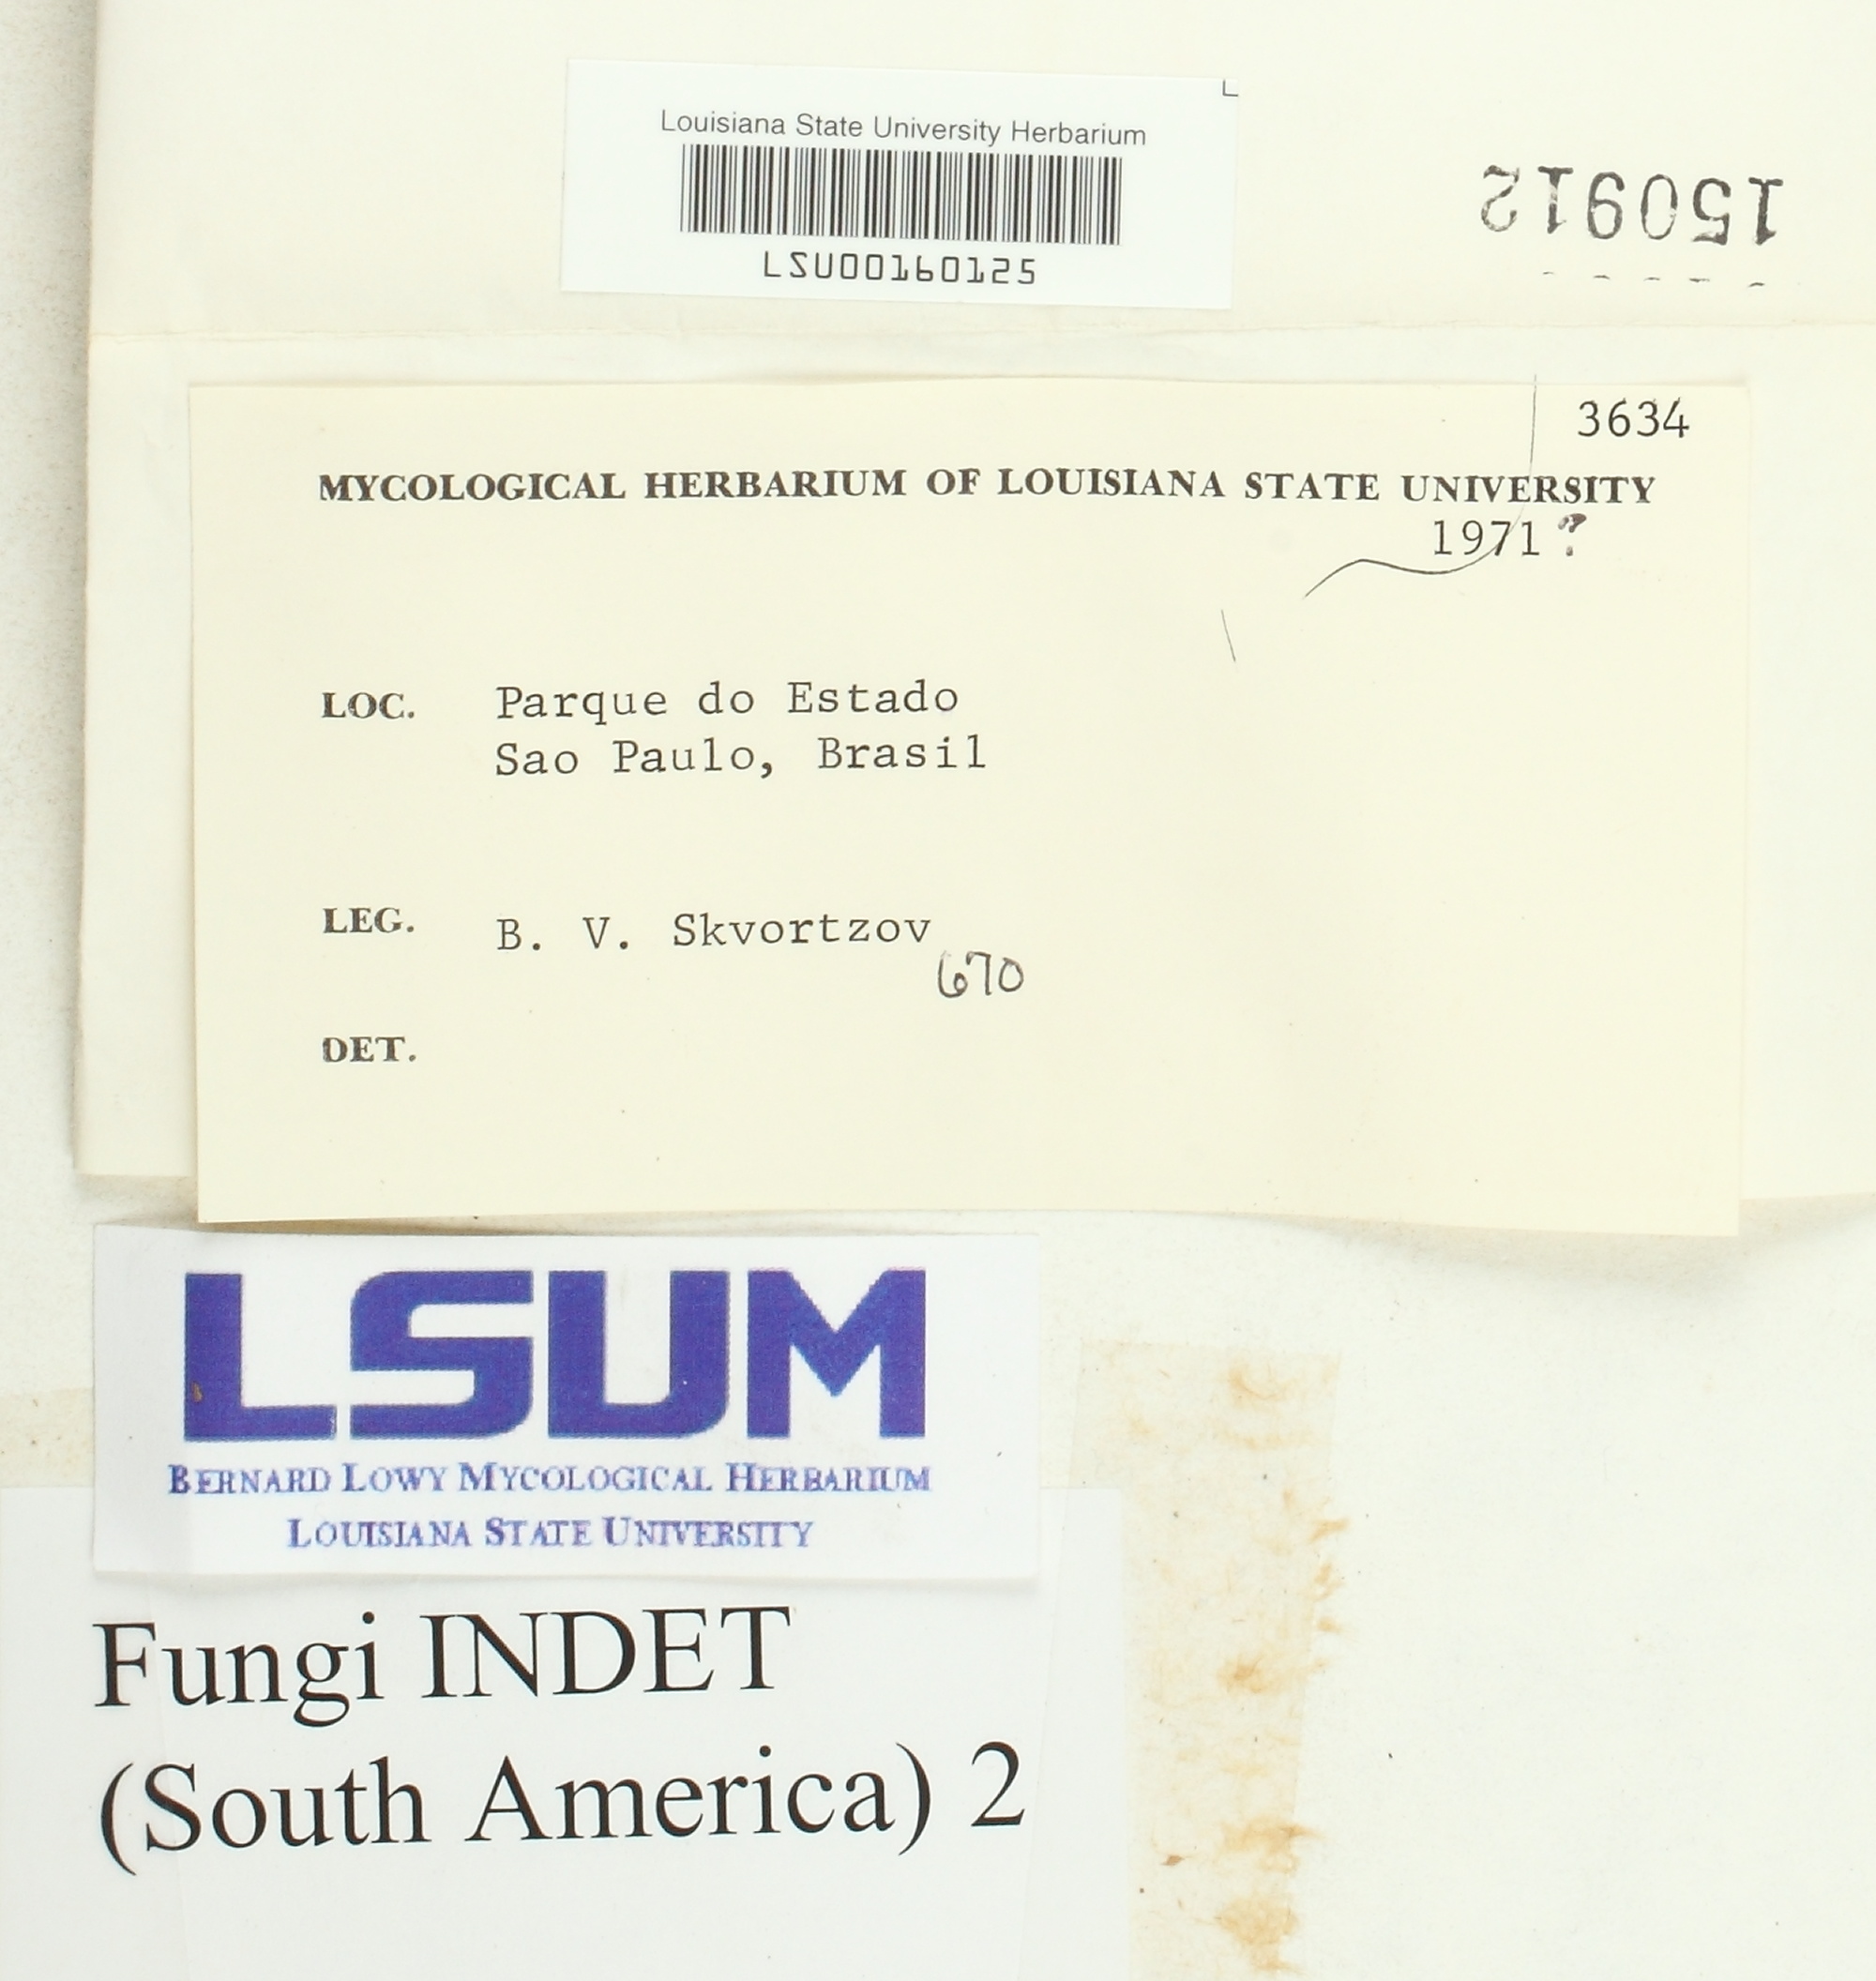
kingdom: Fungi
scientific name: Fungi
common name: Fungi
